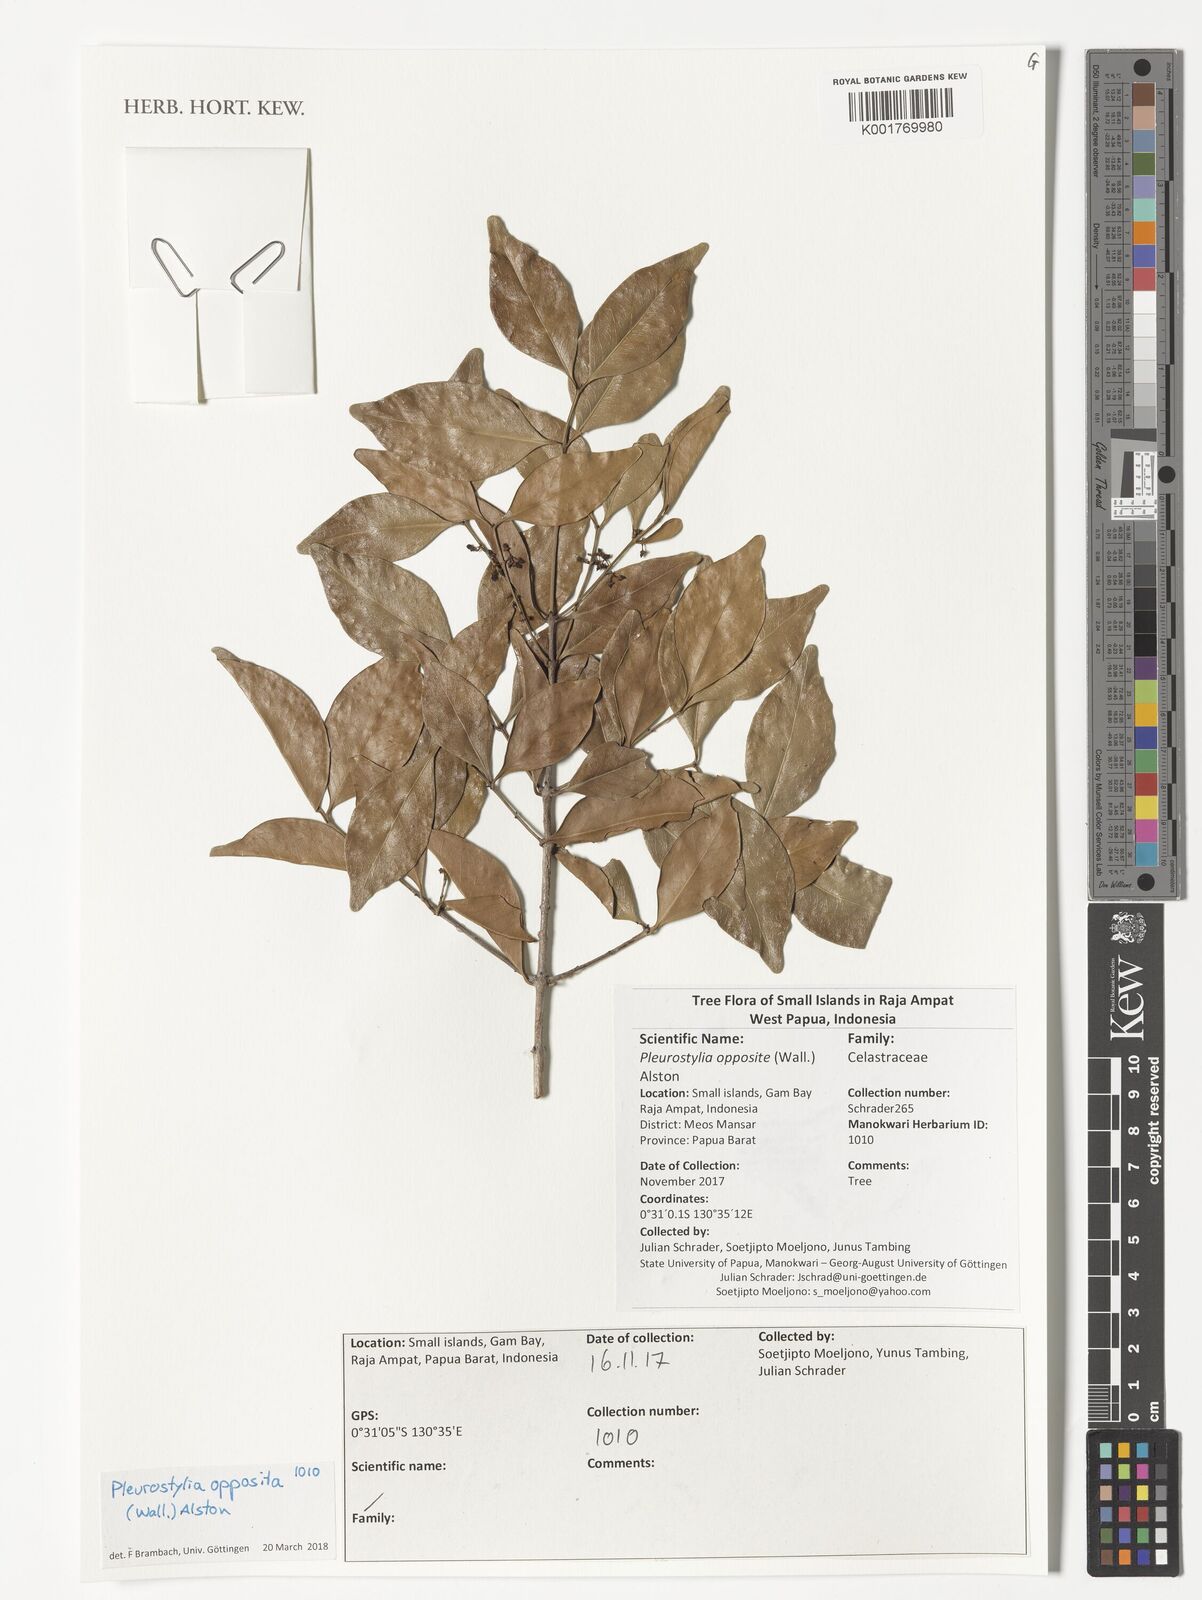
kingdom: Plantae
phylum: Tracheophyta
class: Magnoliopsida
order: Celastrales
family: Celastraceae
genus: Pleurostylia
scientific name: Pleurostylia opposita
